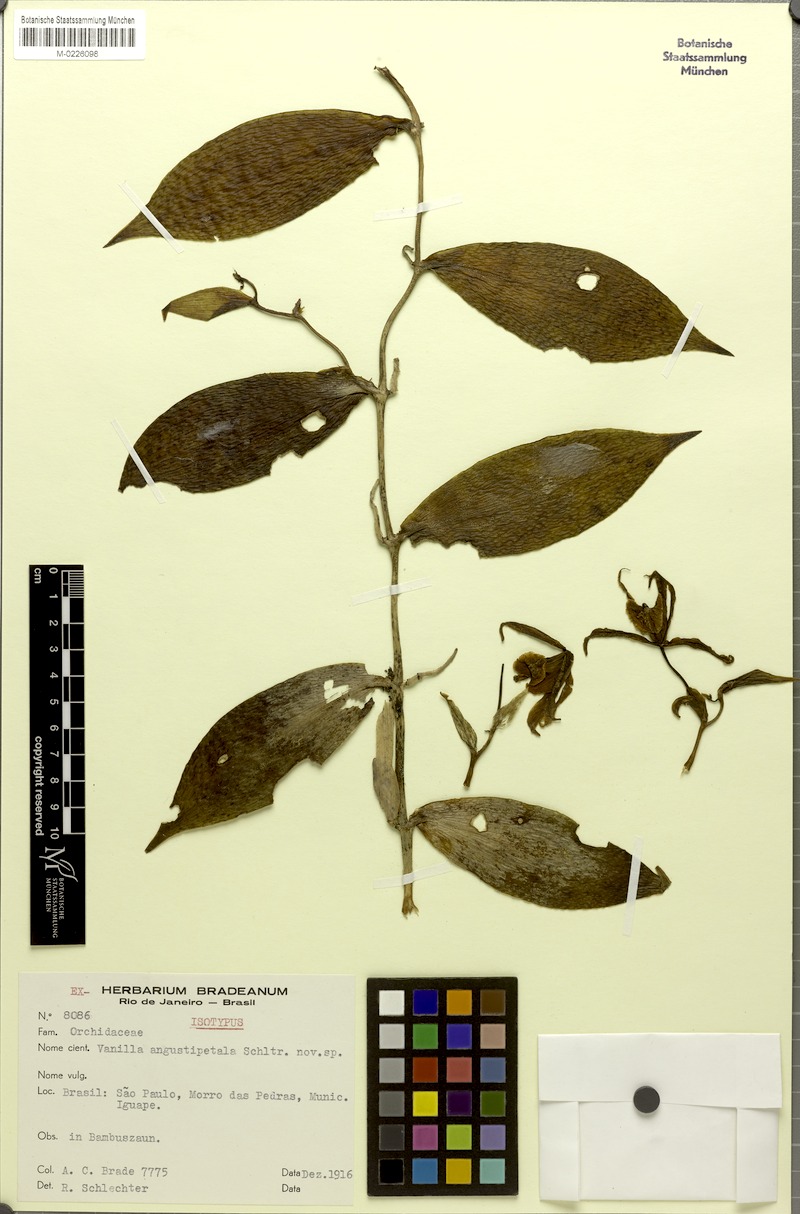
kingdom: Plantae
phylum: Tracheophyta
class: Liliopsida
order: Asparagales
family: Orchidaceae
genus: Vanilla
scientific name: Vanilla angustipetala
